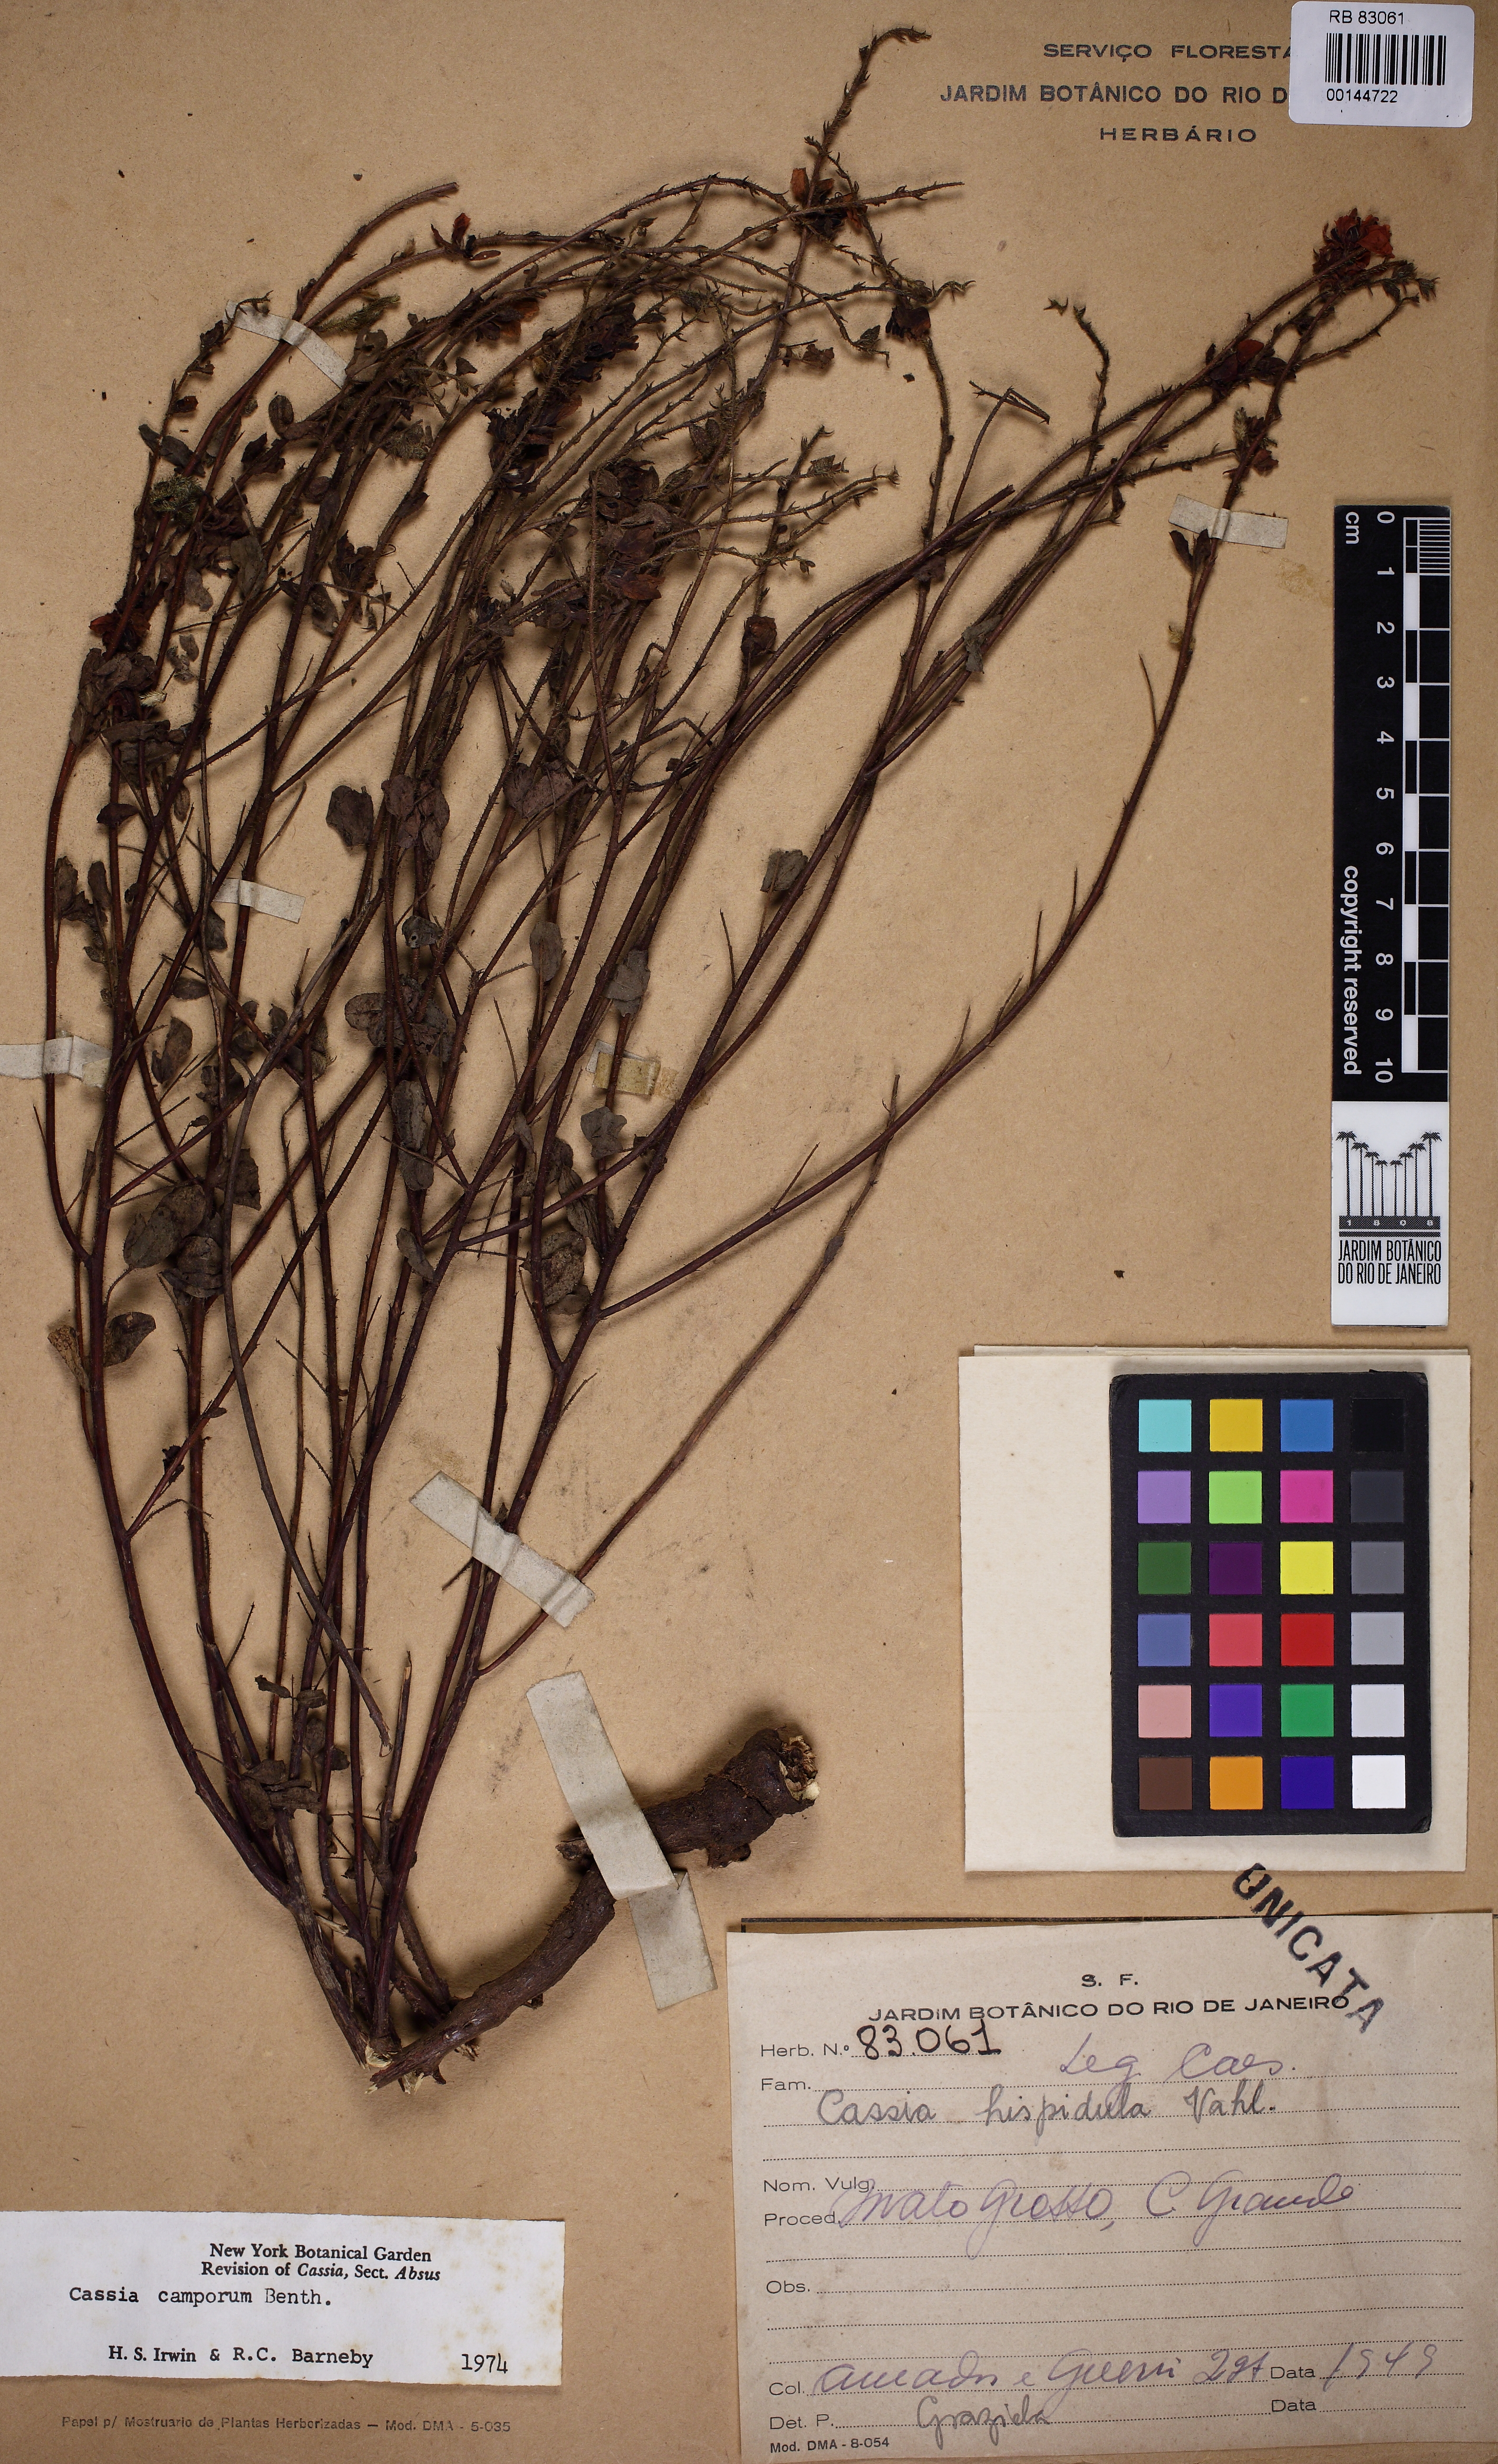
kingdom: Plantae
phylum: Tracheophyta
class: Magnoliopsida
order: Fabales
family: Fabaceae
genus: Chamaecrista
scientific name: Chamaecrista campestris
